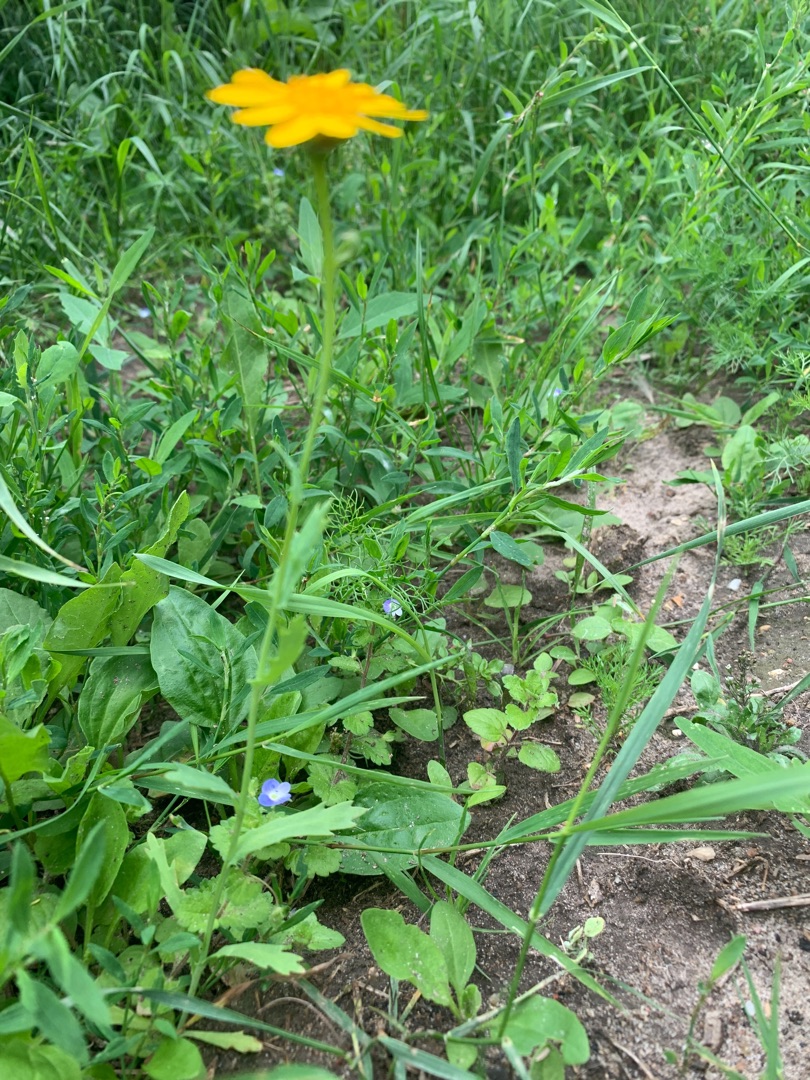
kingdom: Plantae
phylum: Tracheophyta
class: Magnoliopsida
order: Asterales
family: Asteraceae
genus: Glebionis
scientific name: Glebionis segetum
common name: Gul okseøje
